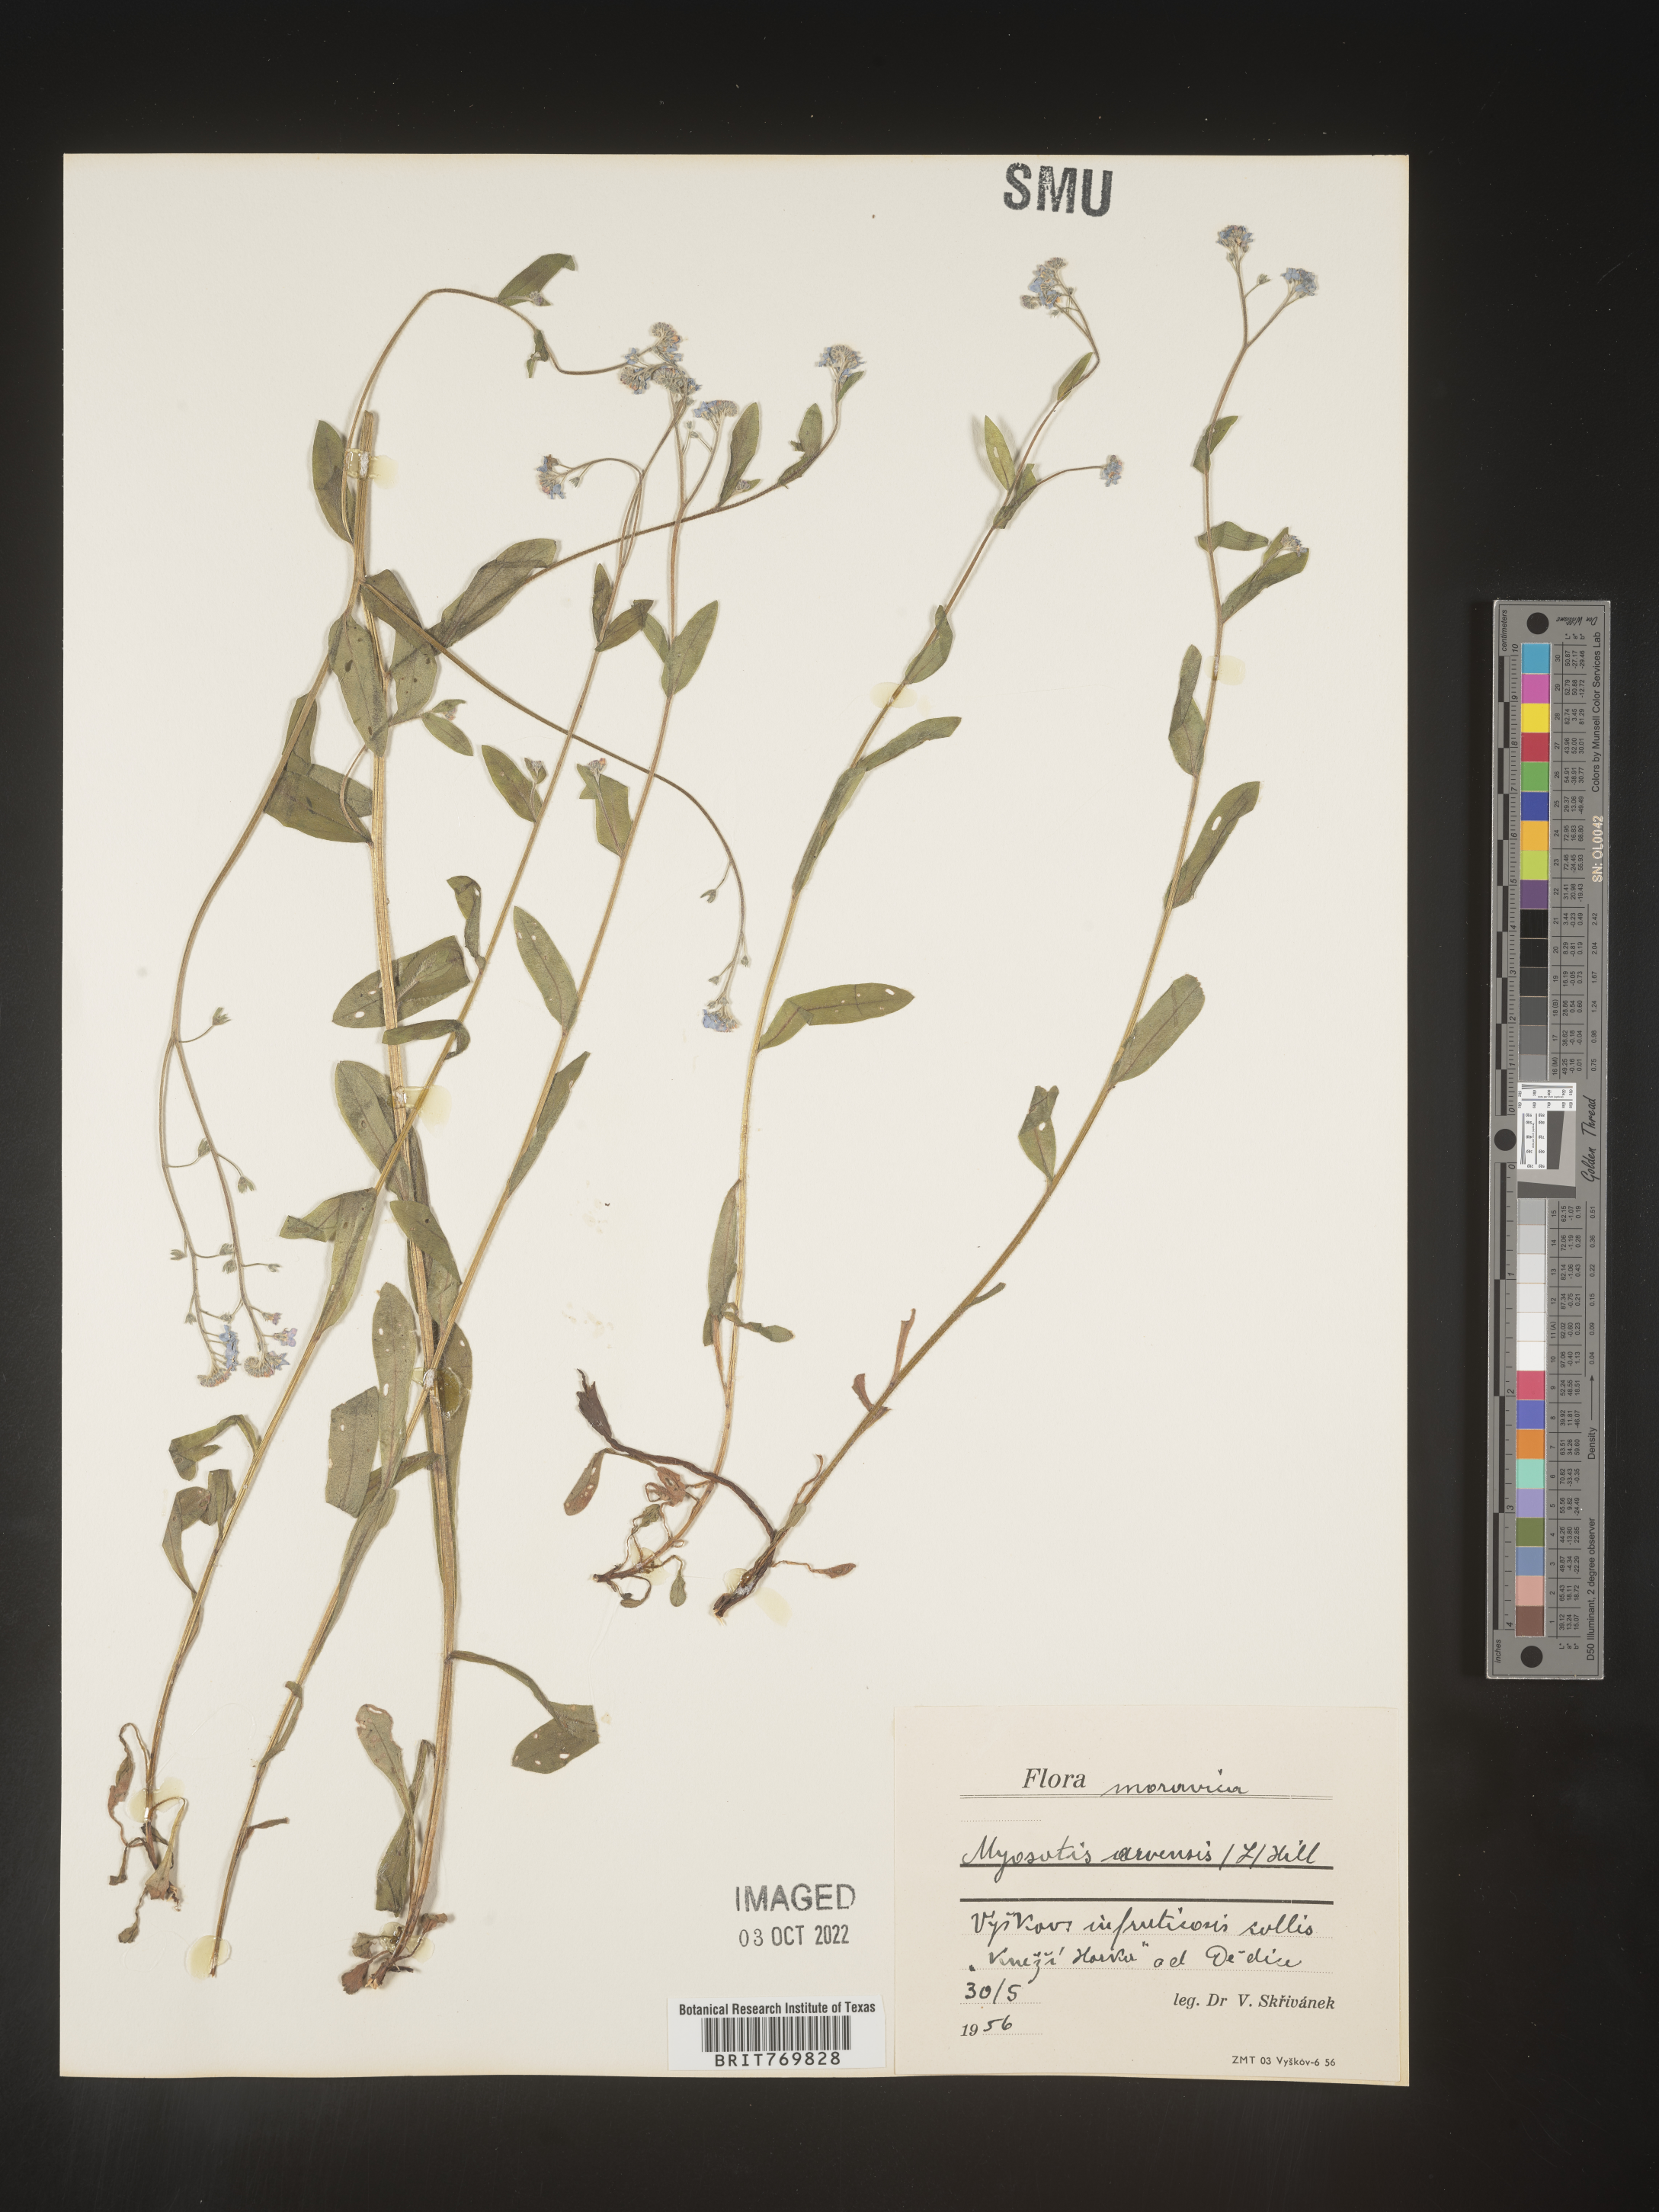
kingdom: Plantae
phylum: Tracheophyta
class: Magnoliopsida
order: Boraginales
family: Boraginaceae
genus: Myosotis
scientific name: Myosotis
